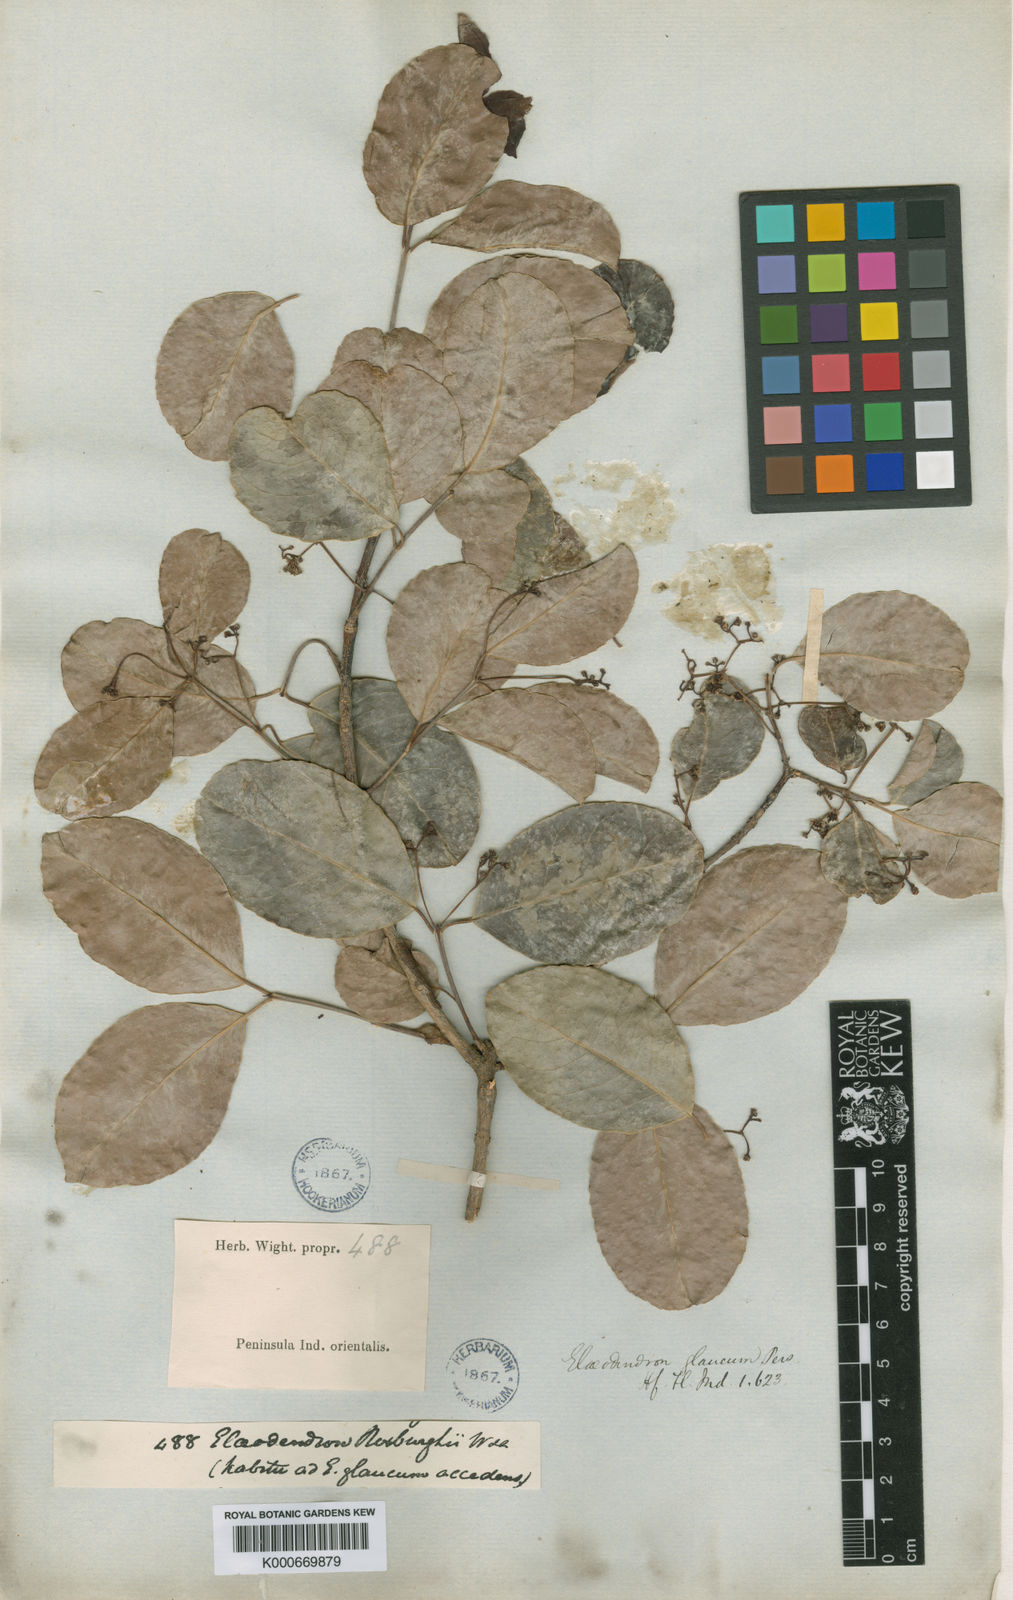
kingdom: Plantae
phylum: Tracheophyta
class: Magnoliopsida
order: Celastrales
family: Celastraceae
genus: Elaeodendron
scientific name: Elaeodendron glaucum
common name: Ceylon-tea
